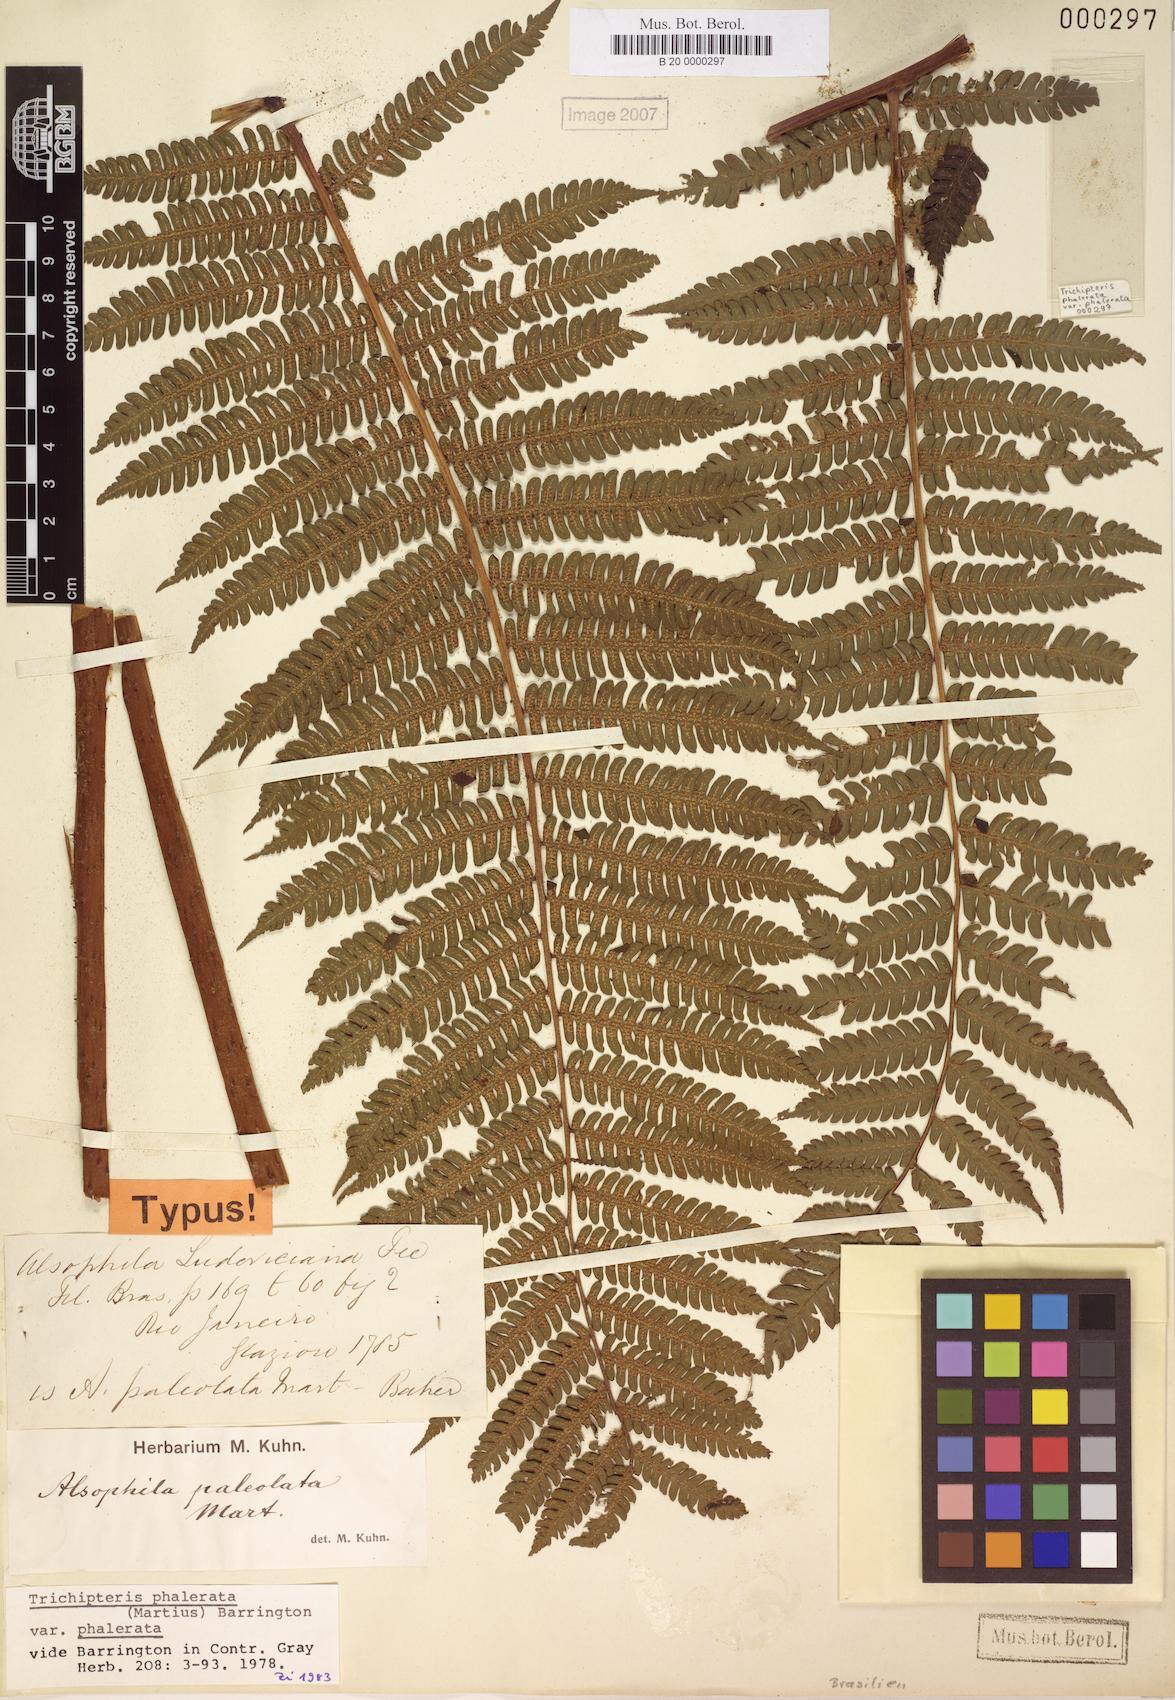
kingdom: Plantae
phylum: Tracheophyta
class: Polypodiopsida
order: Cyatheales
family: Cyatheaceae
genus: Cyathea
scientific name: Cyathea phalerata
